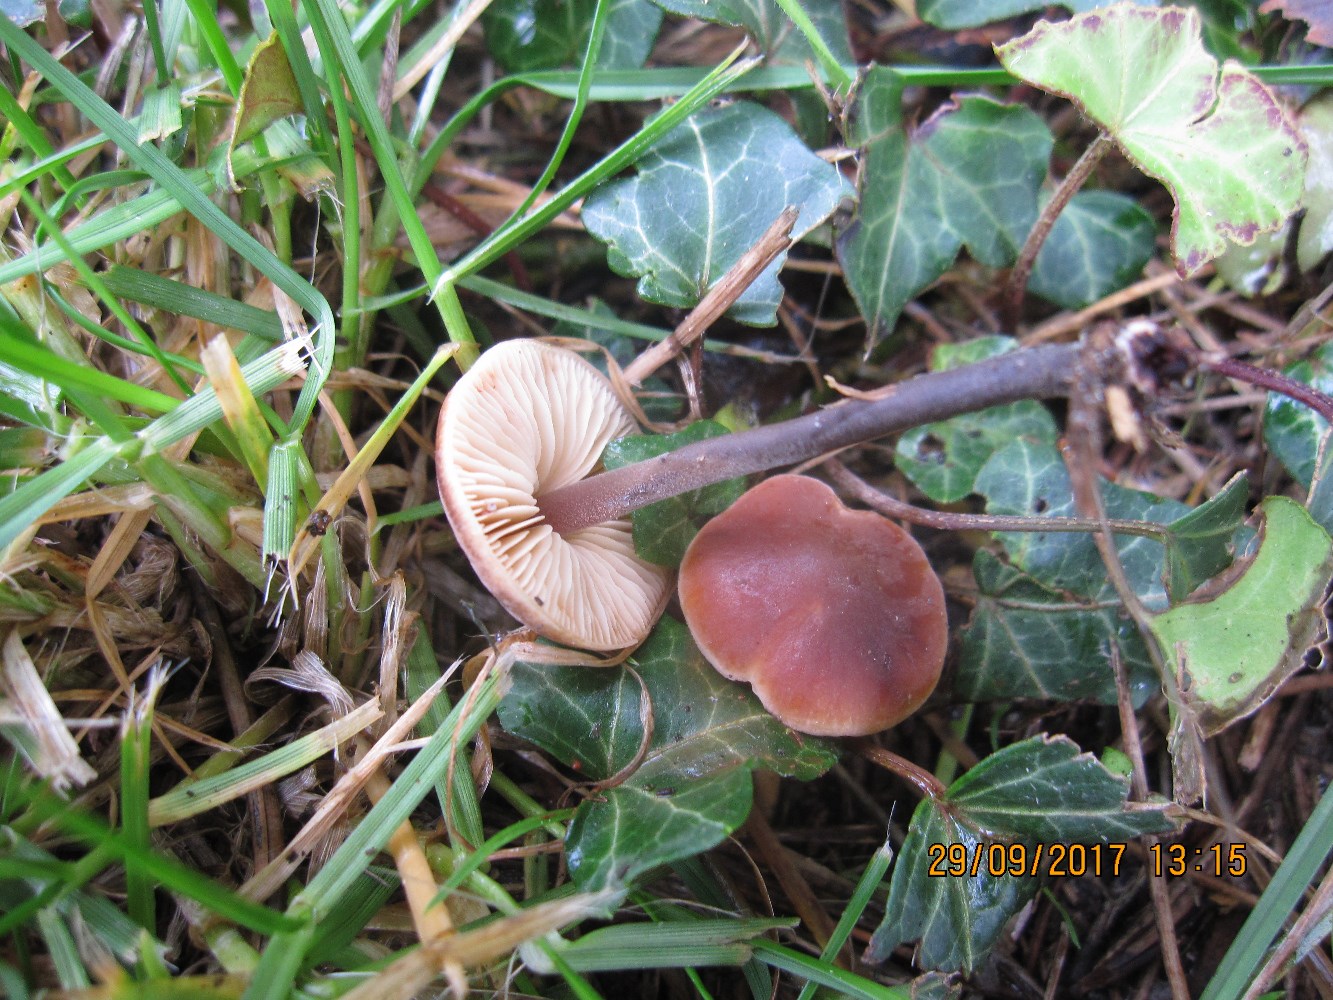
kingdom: Fungi
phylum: Basidiomycota
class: Agaricomycetes
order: Agaricales
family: Macrocystidiaceae
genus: Macrocystidia
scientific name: Macrocystidia cucumis
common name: agurkehat
